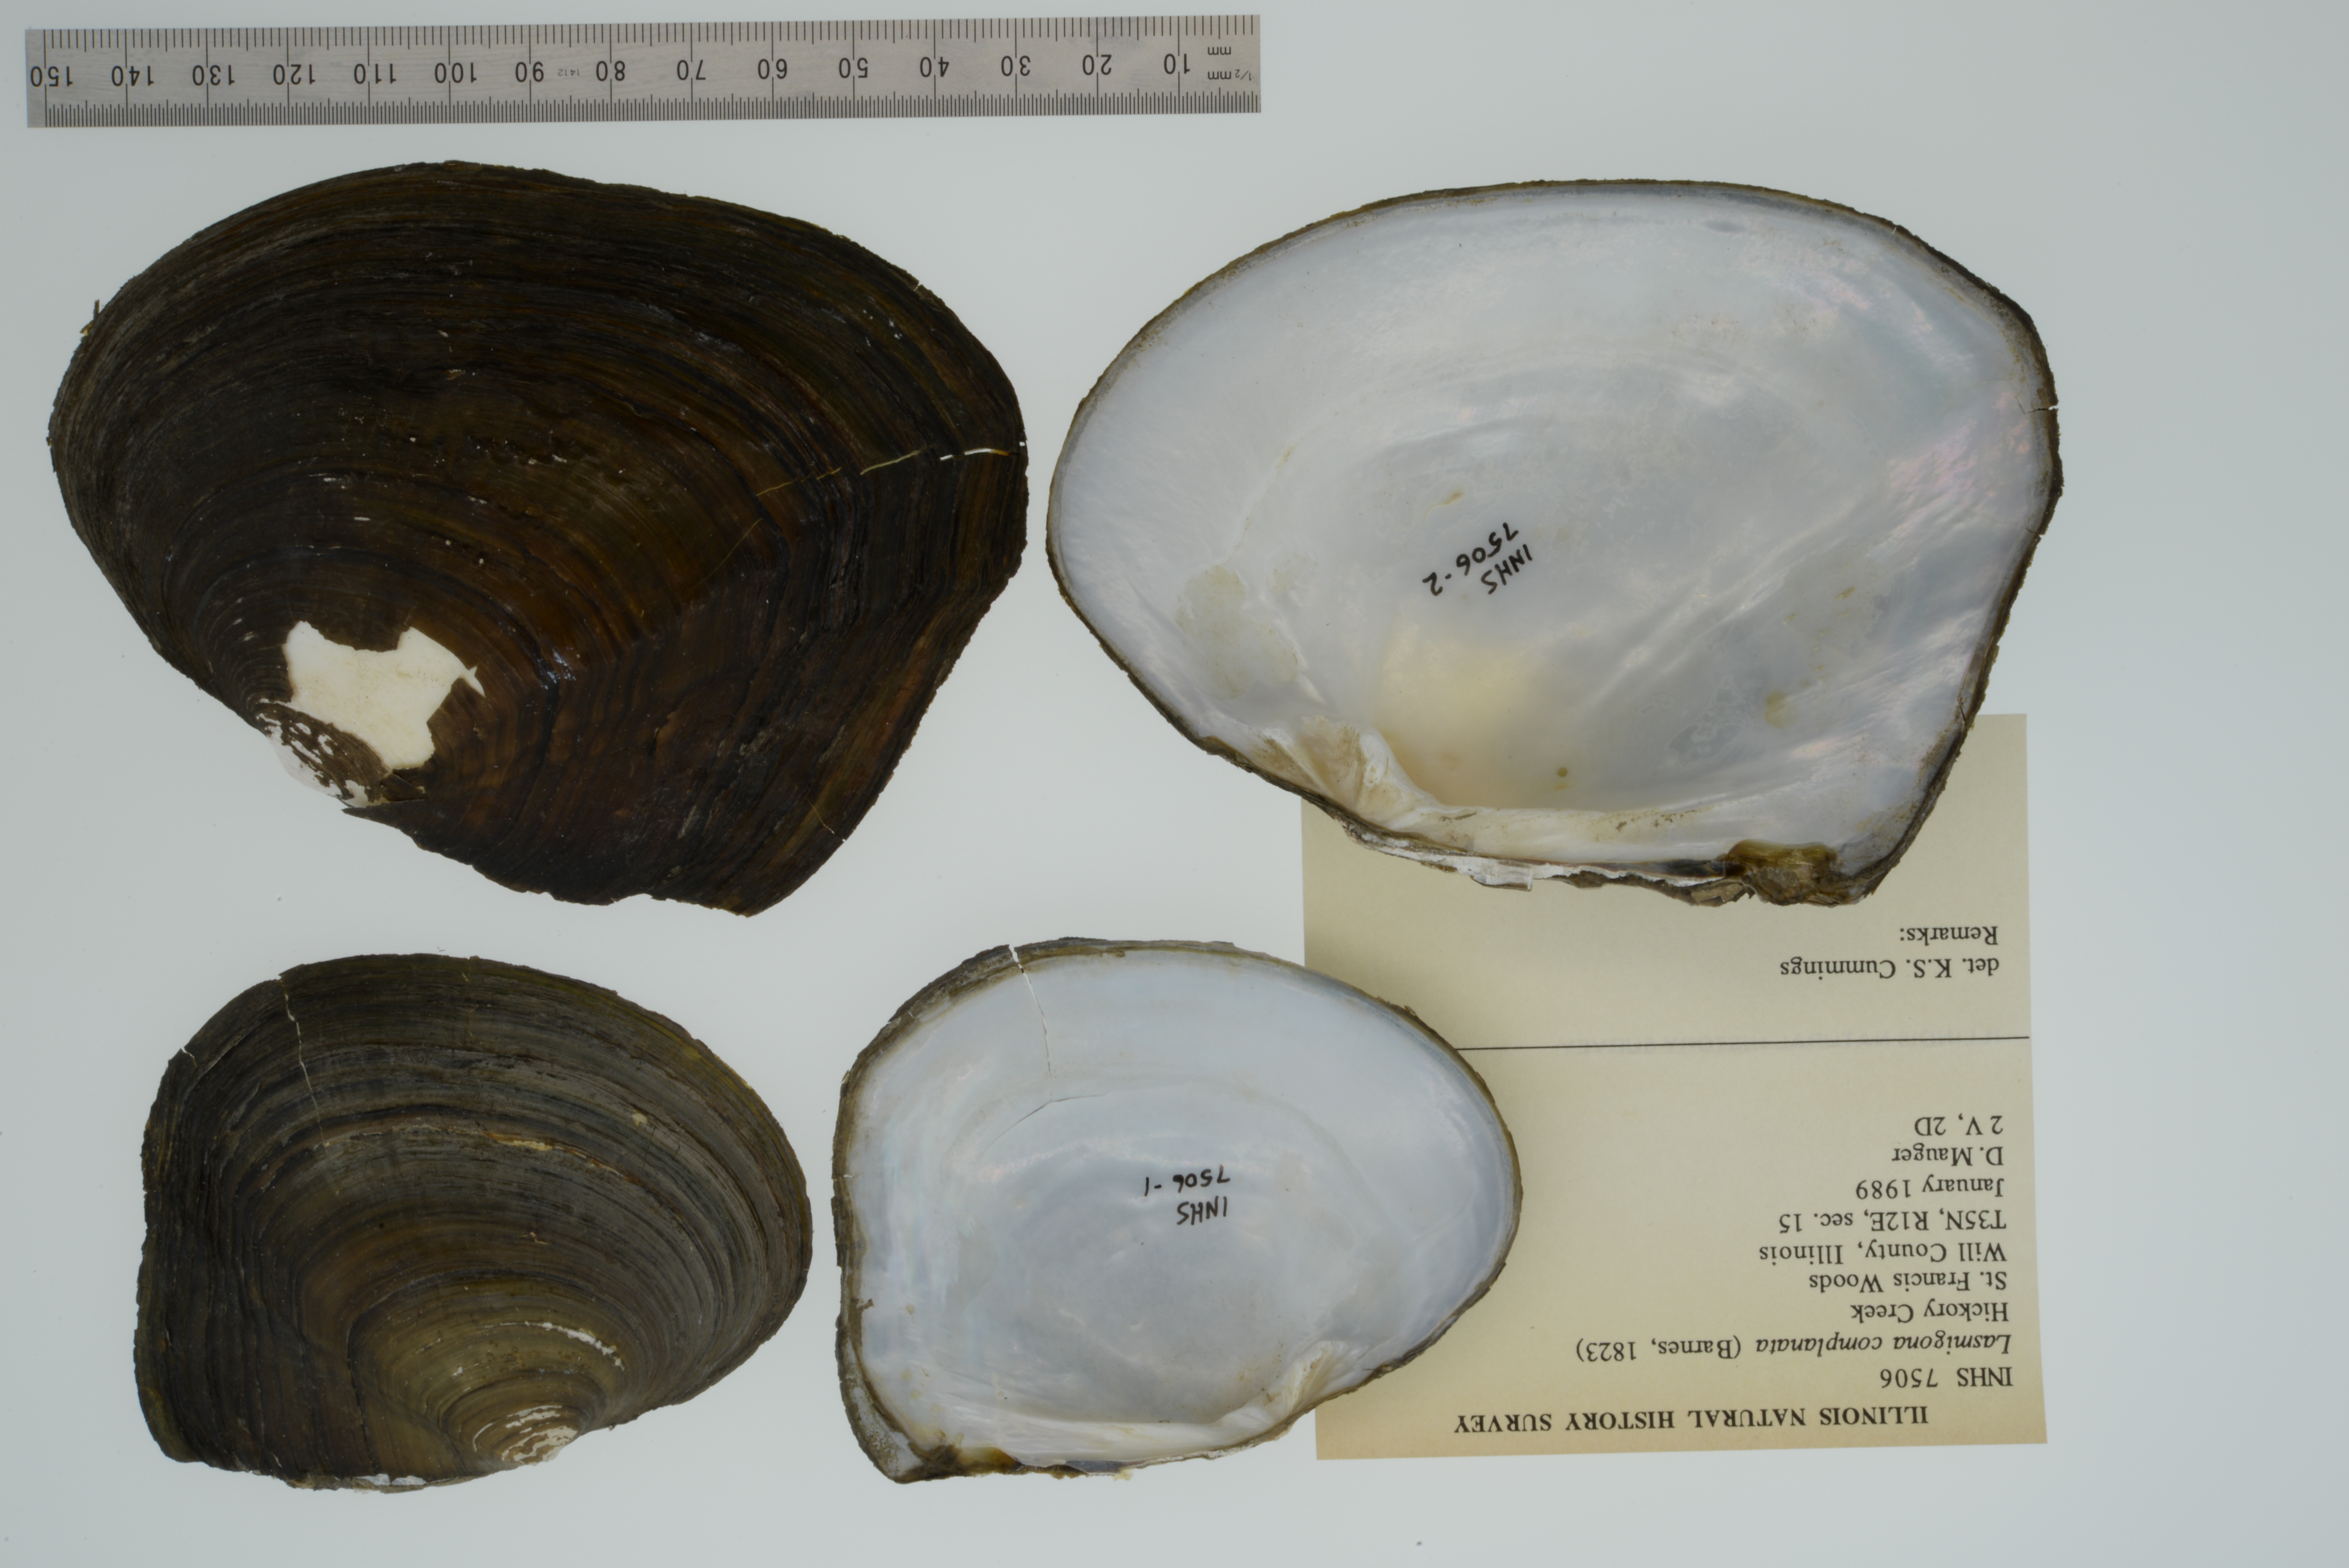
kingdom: Animalia
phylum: Mollusca
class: Bivalvia
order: Unionida
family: Unionidae
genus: Lasmigona
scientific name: Lasmigona complanata
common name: White heelsplitter
